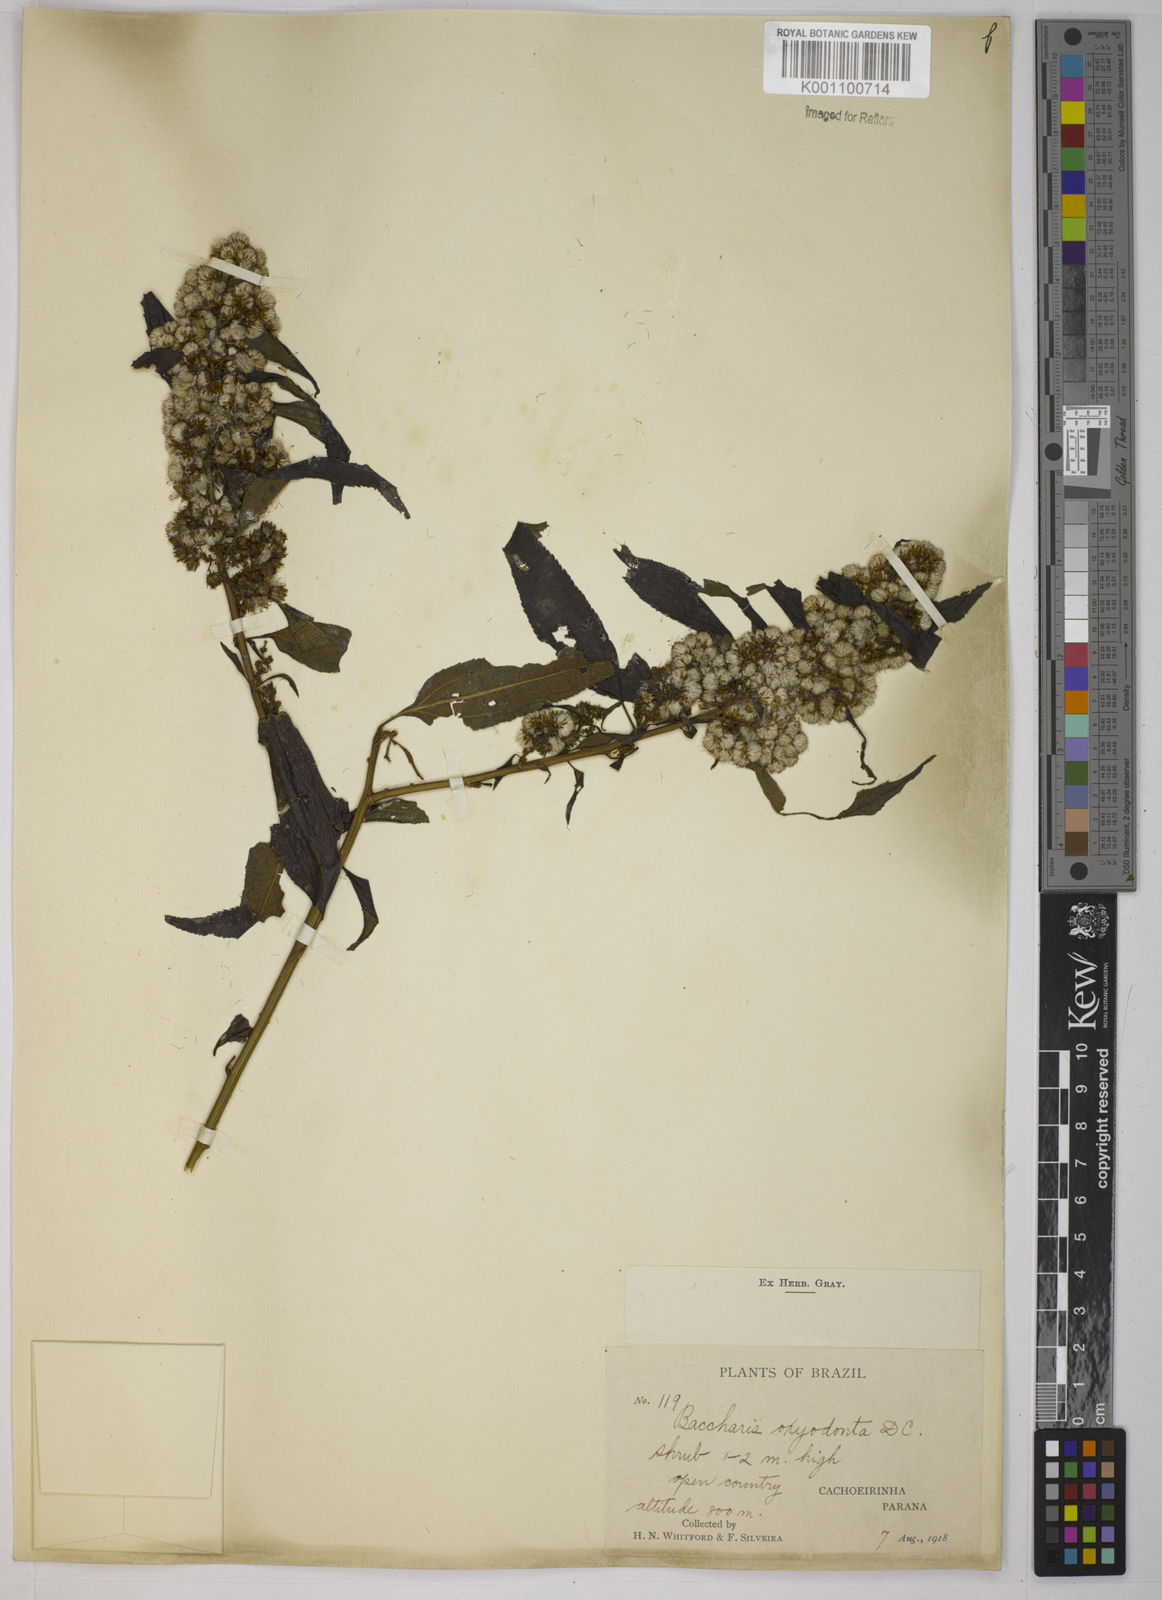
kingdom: Plantae
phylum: Tracheophyta
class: Magnoliopsida
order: Asterales
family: Asteraceae
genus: Baccharis
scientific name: Baccharis oxyodonta
